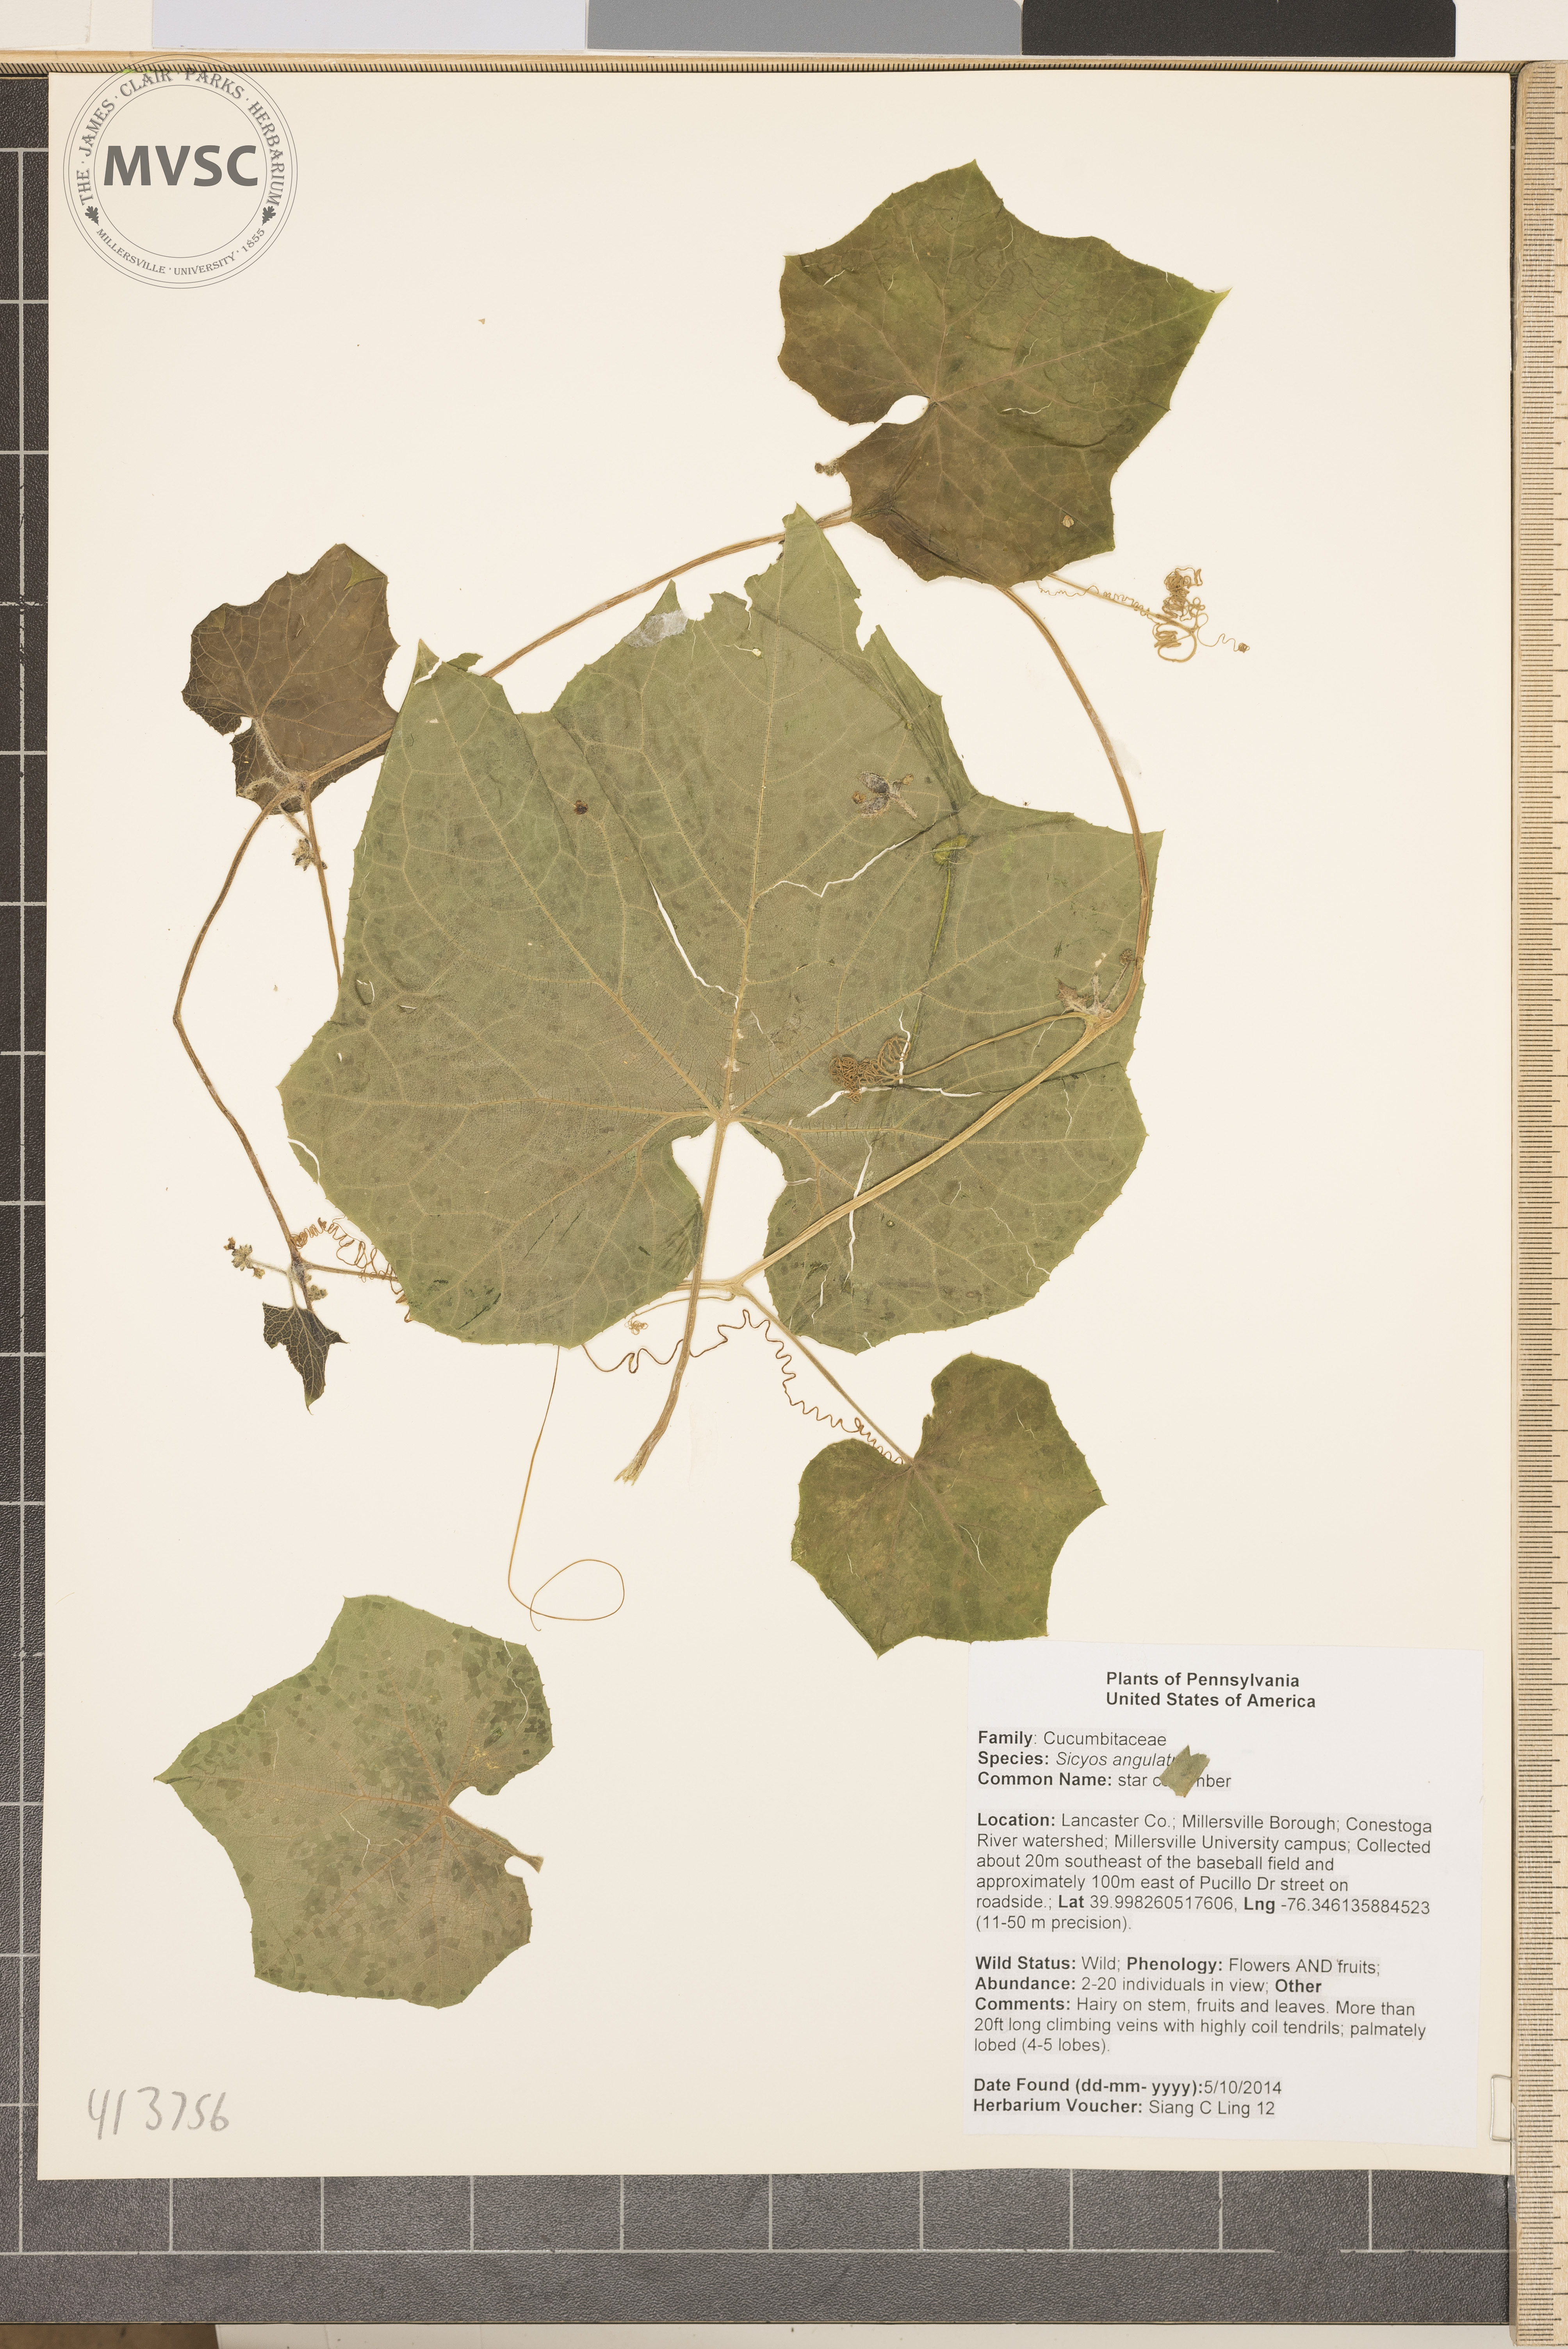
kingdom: Plantae
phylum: Tracheophyta
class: Magnoliopsida
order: Cucurbitales
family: Cucurbitaceae
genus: Sicyos
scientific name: Sicyos angulatus
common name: star cucumber
